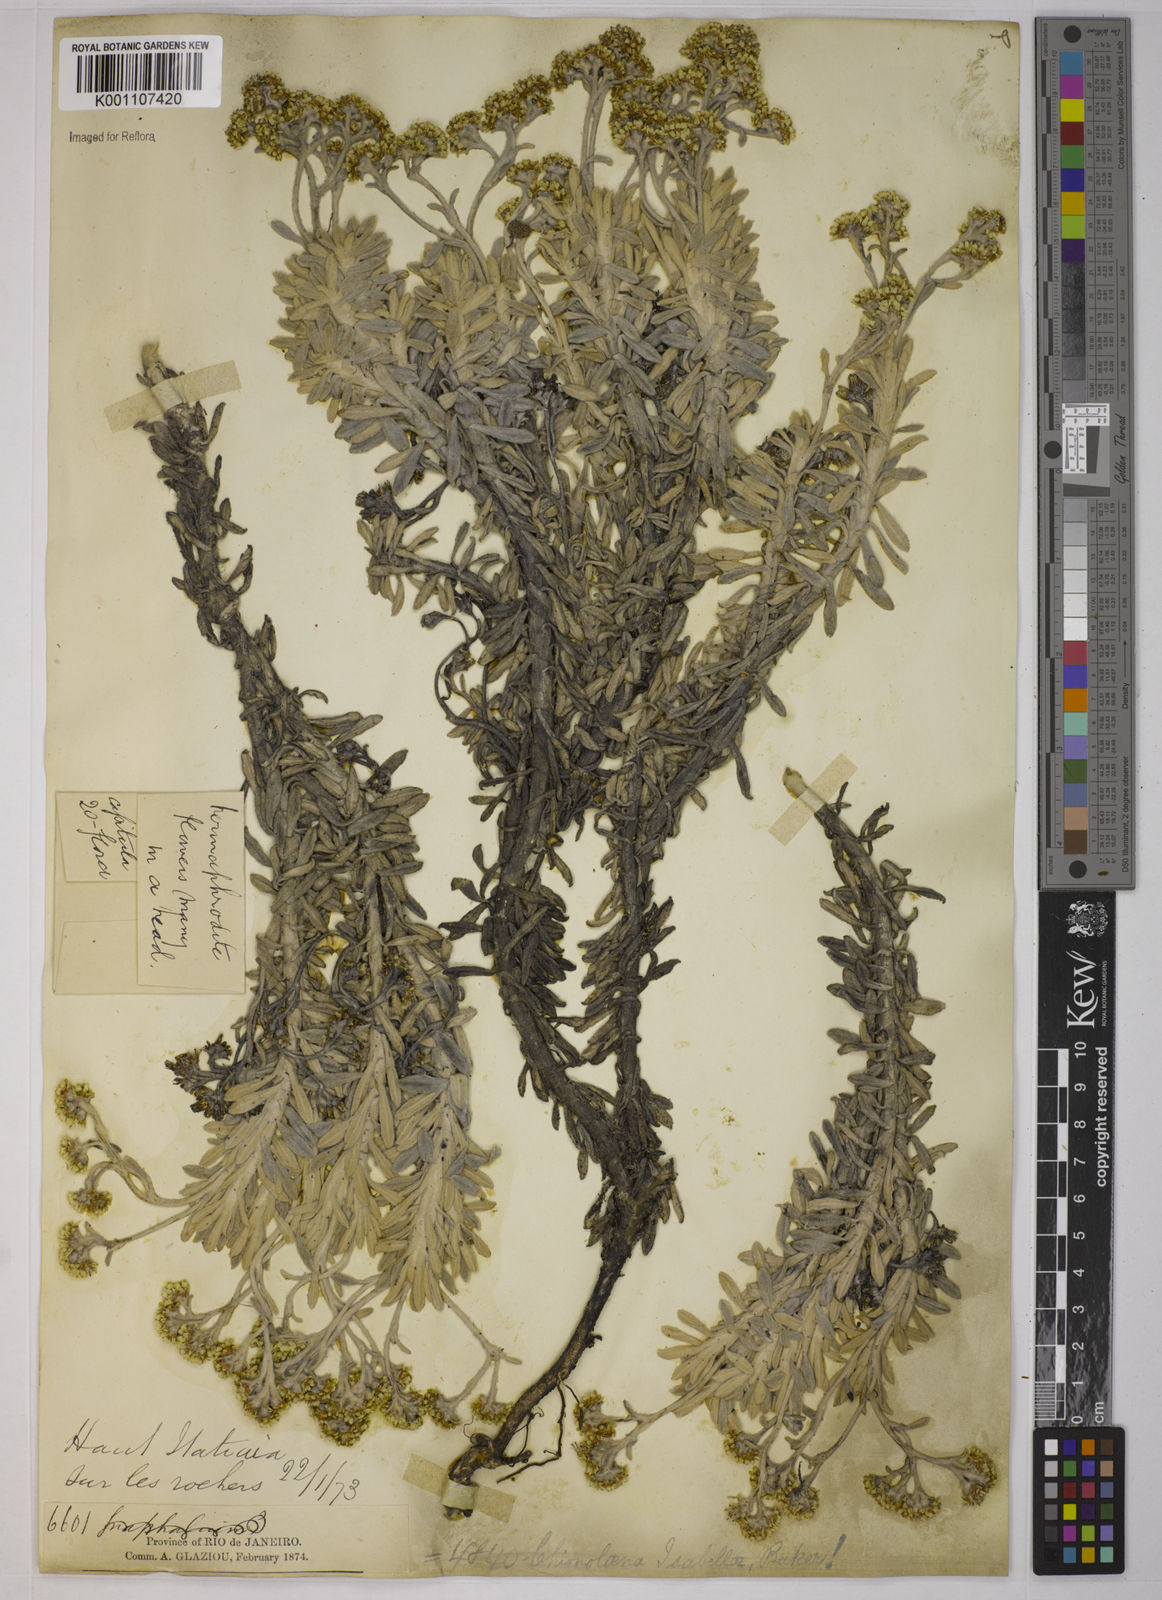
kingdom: Plantae
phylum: Tracheophyta
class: Magnoliopsida
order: Asterales
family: Asteraceae
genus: Chionolaena
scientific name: Chionolaena isabellae
